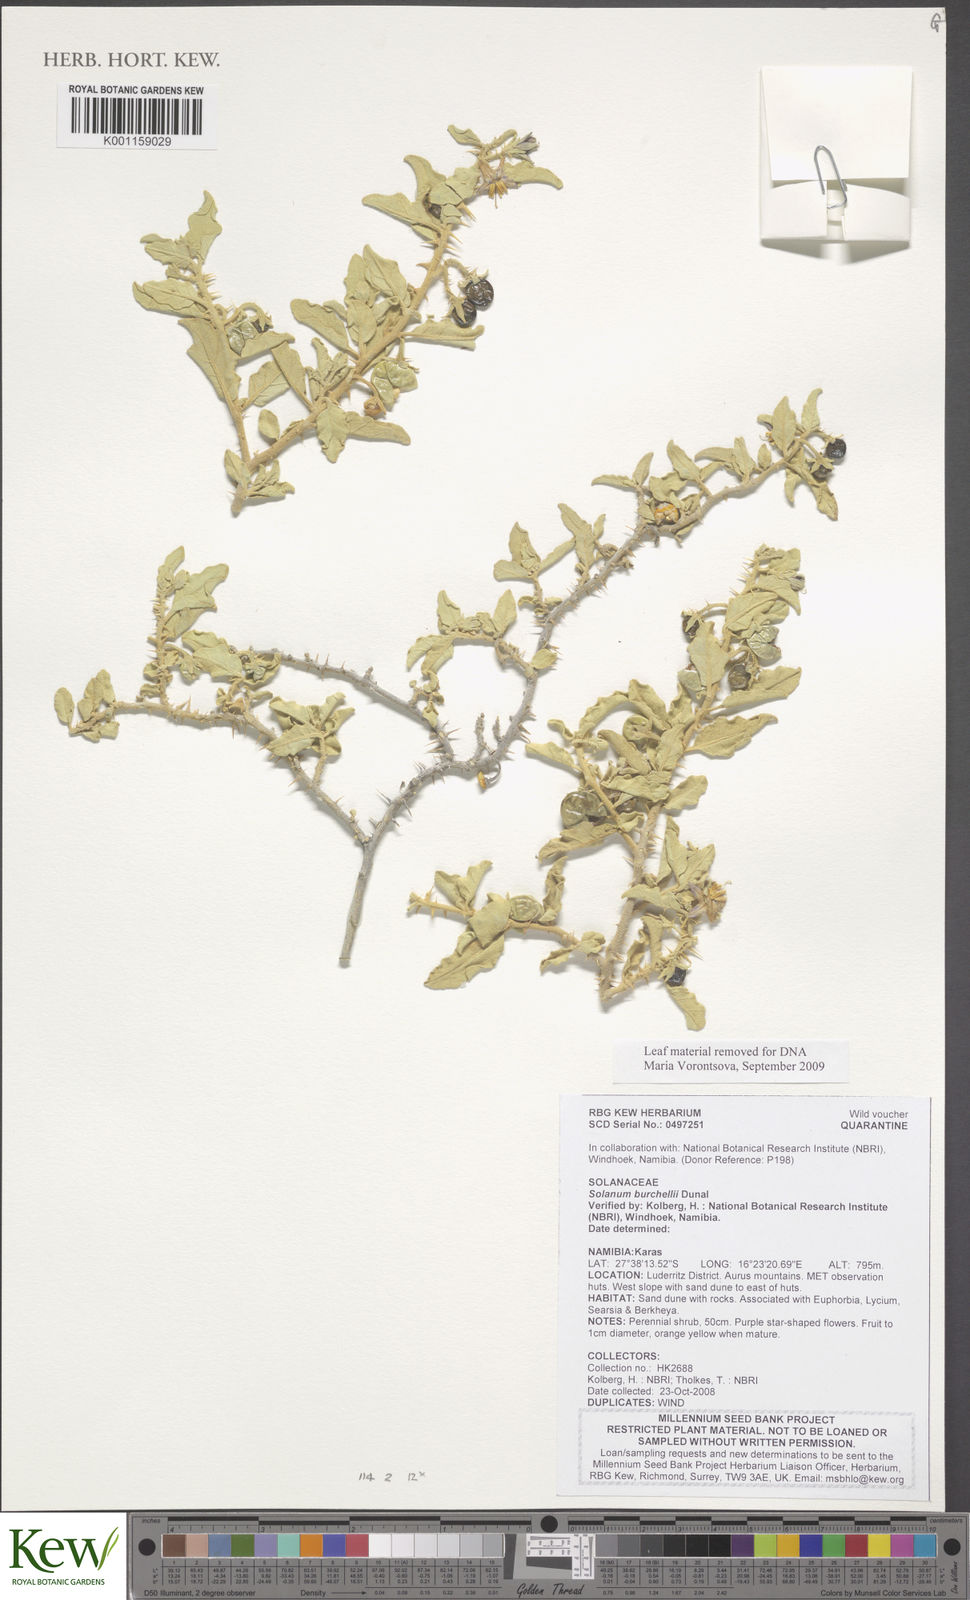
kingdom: Plantae
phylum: Tracheophyta
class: Magnoliopsida
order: Solanales
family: Solanaceae
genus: Solanum
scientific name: Solanum burchellii
